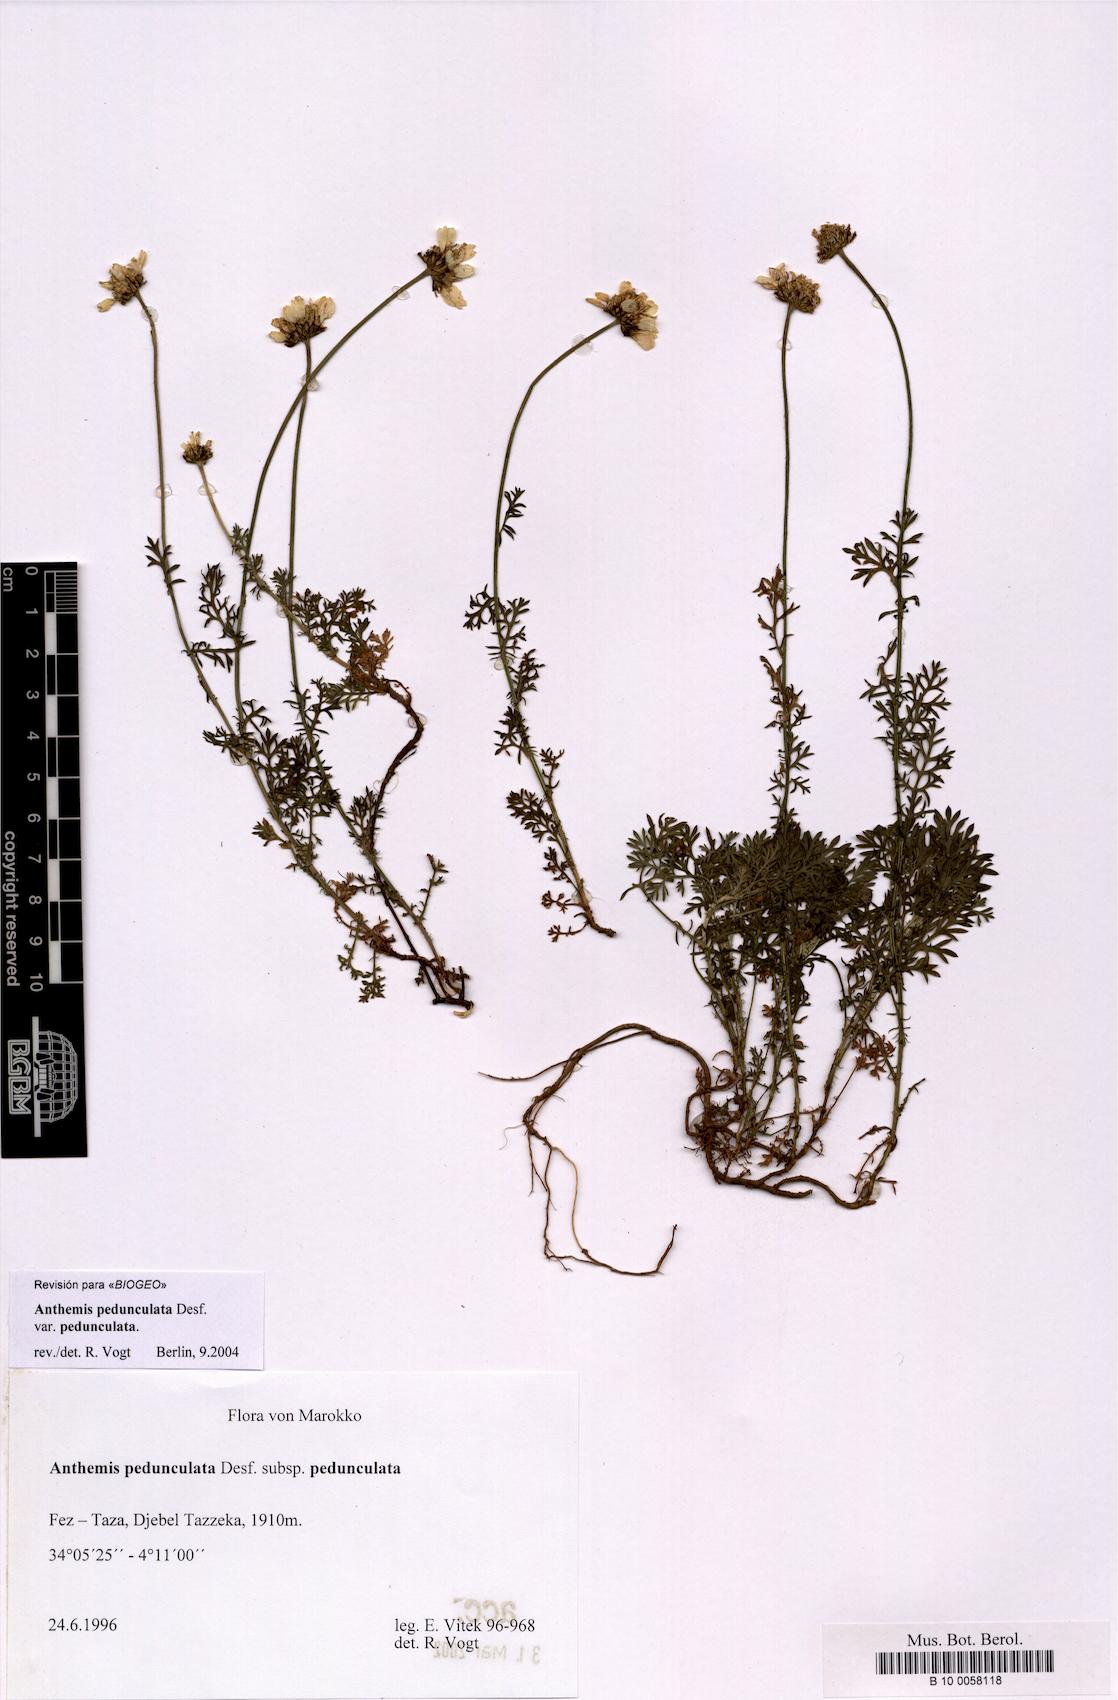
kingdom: Plantae
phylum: Tracheophyta
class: Magnoliopsida
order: Asterales
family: Asteraceae
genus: Anthemis
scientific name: Anthemis pedunculata
